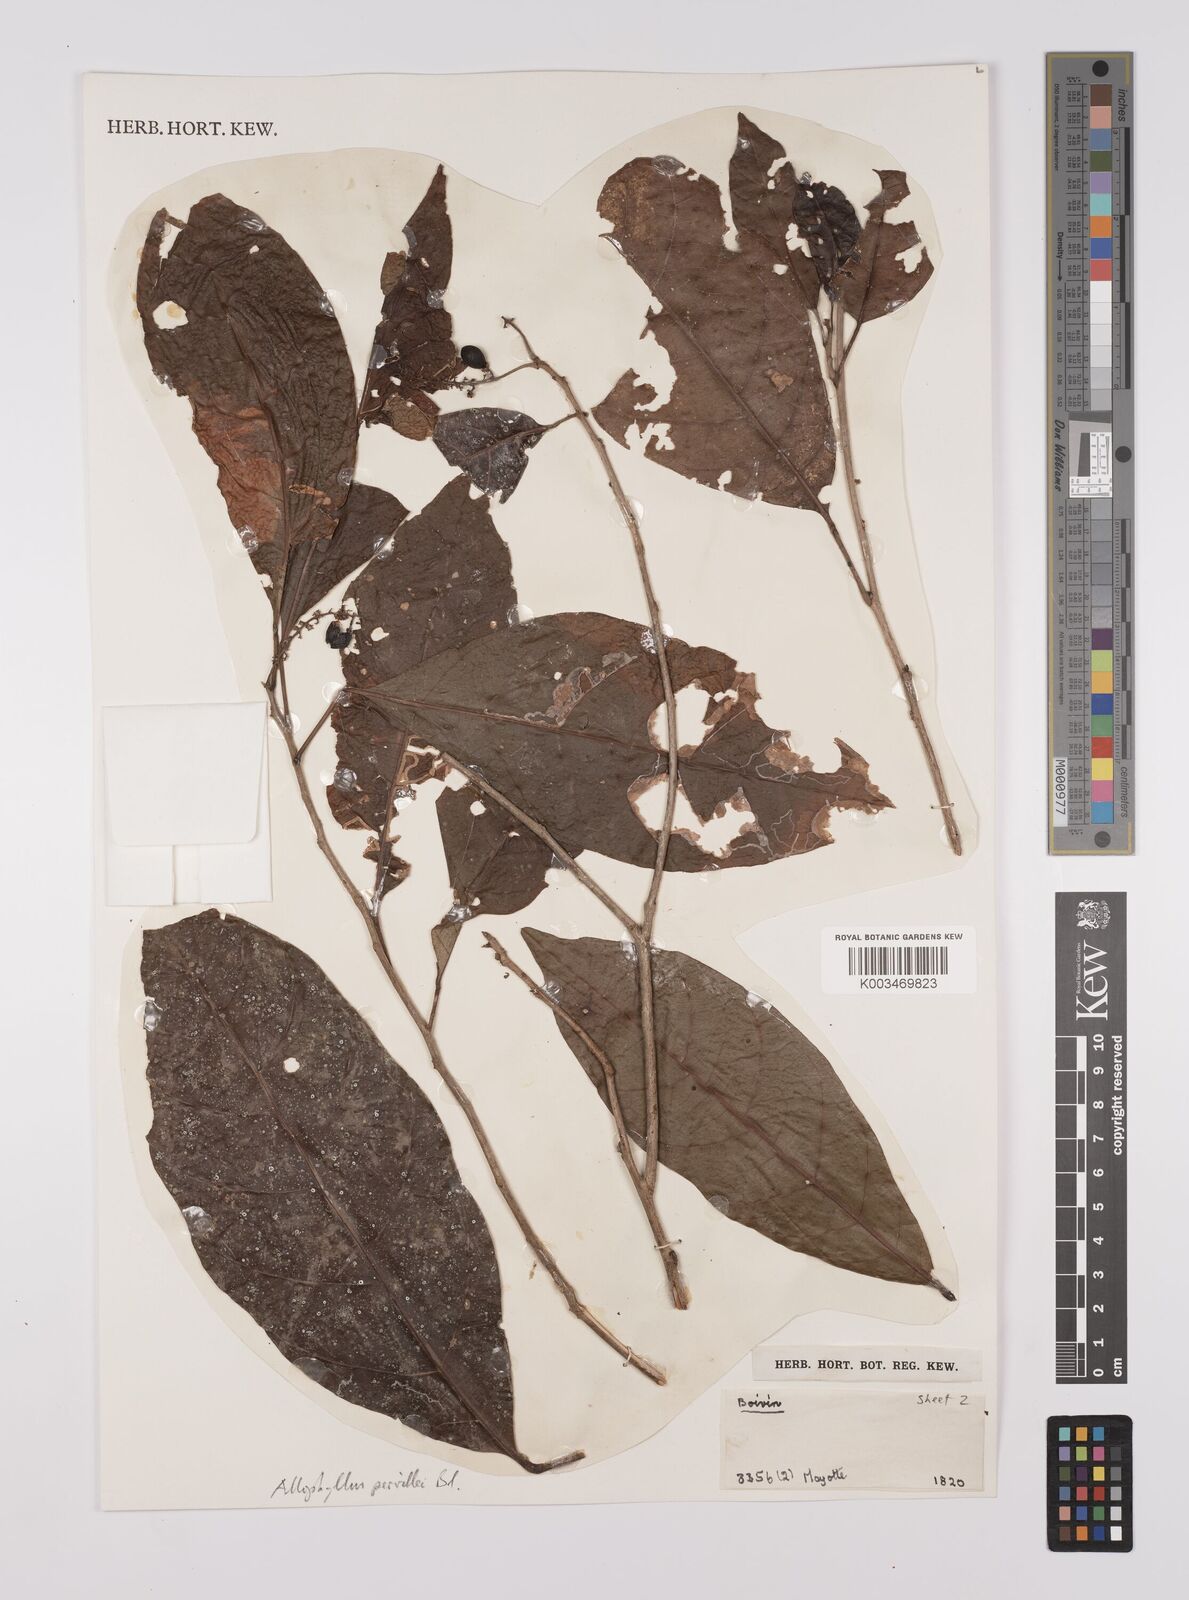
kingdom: Plantae
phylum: Tracheophyta
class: Magnoliopsida
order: Sapindales
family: Sapindaceae
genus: Allophylus
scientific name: Allophylus pervillei
